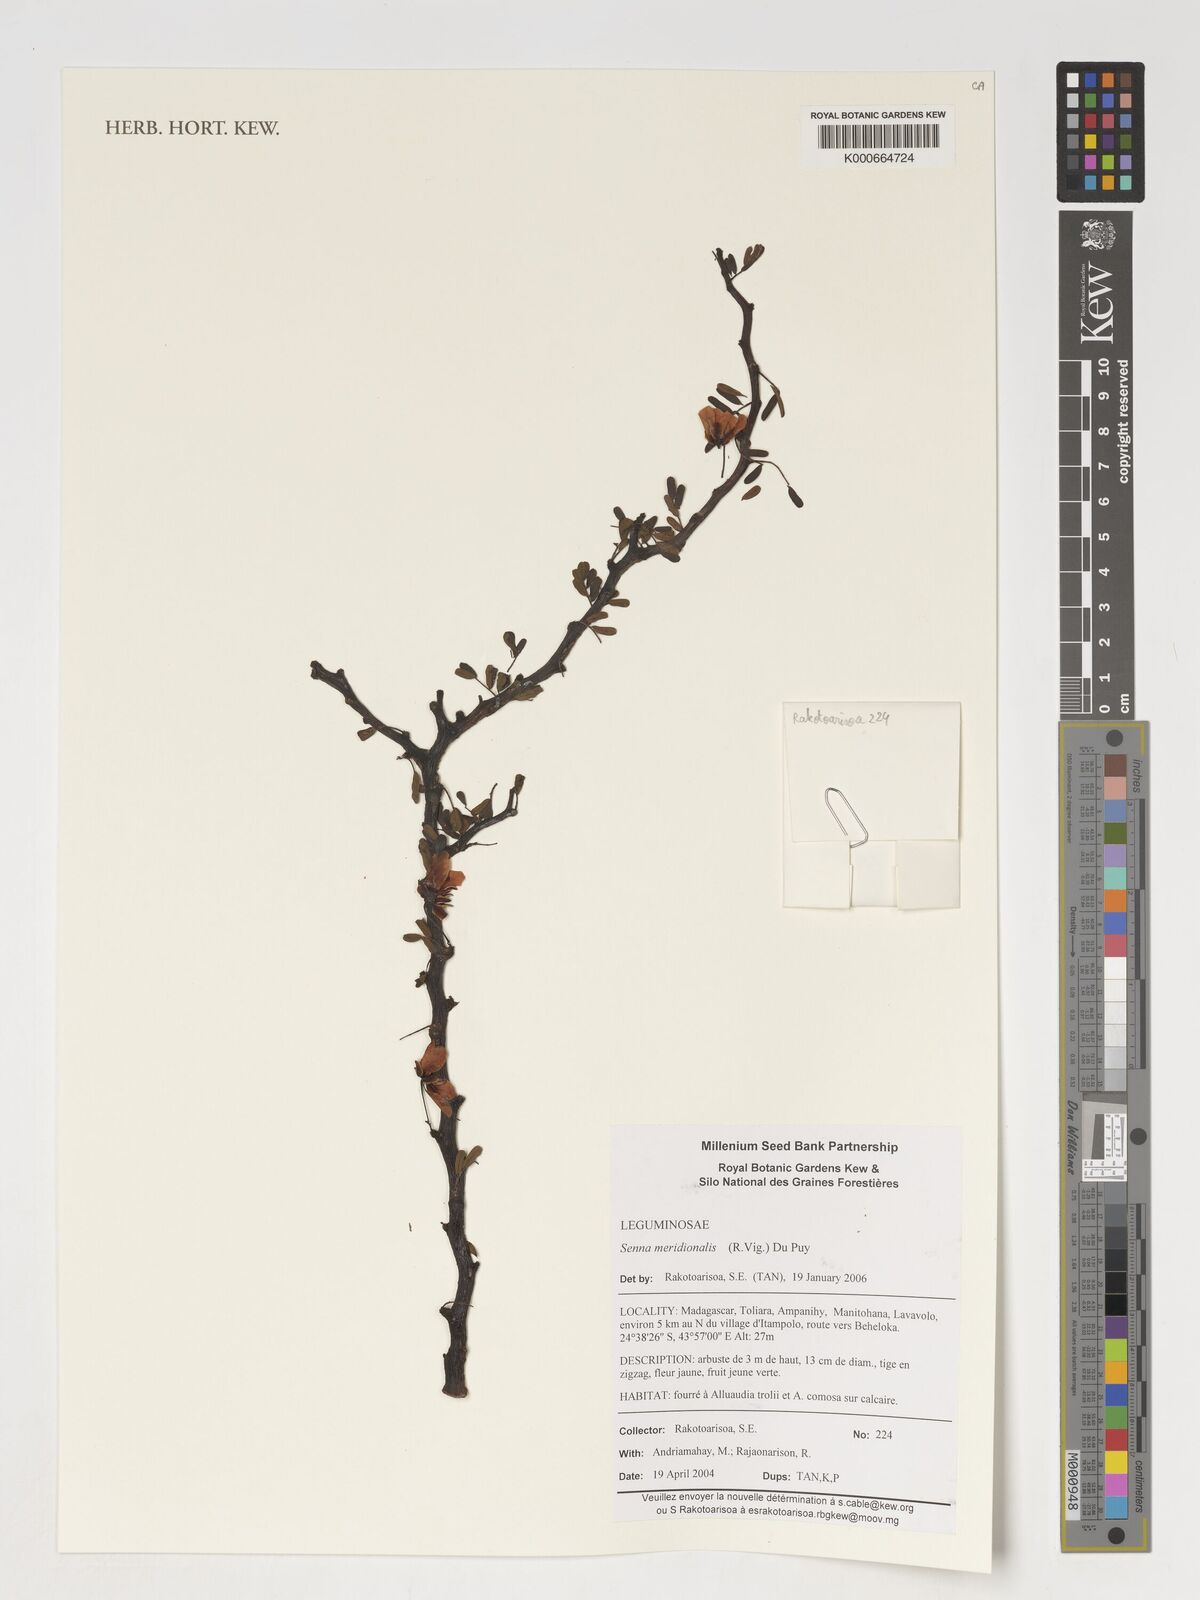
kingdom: Plantae
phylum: Tracheophyta
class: Magnoliopsida
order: Fabales
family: Fabaceae
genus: Senna
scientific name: Senna meridionalis
